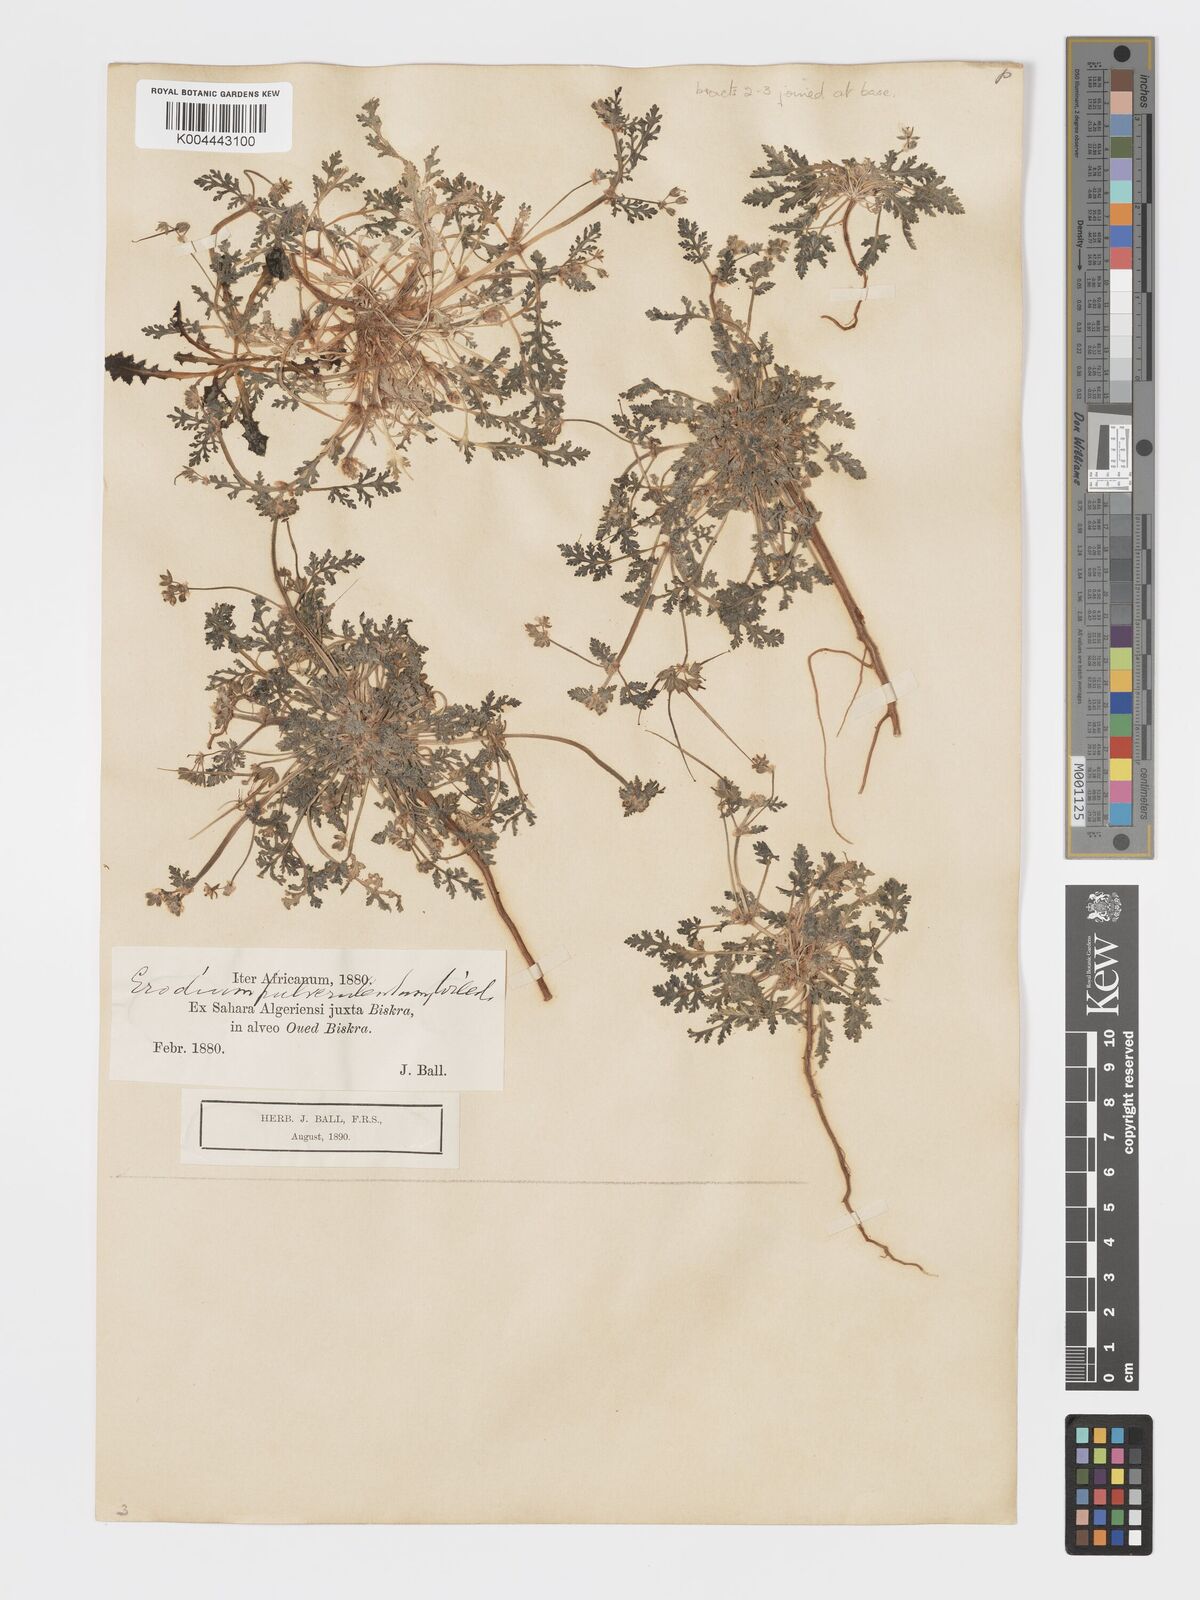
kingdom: Plantae
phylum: Tracheophyta
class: Magnoliopsida
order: Geraniales
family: Geraniaceae
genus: Erodium
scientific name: Erodium laciniatum
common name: Cutleaf stork's bill
